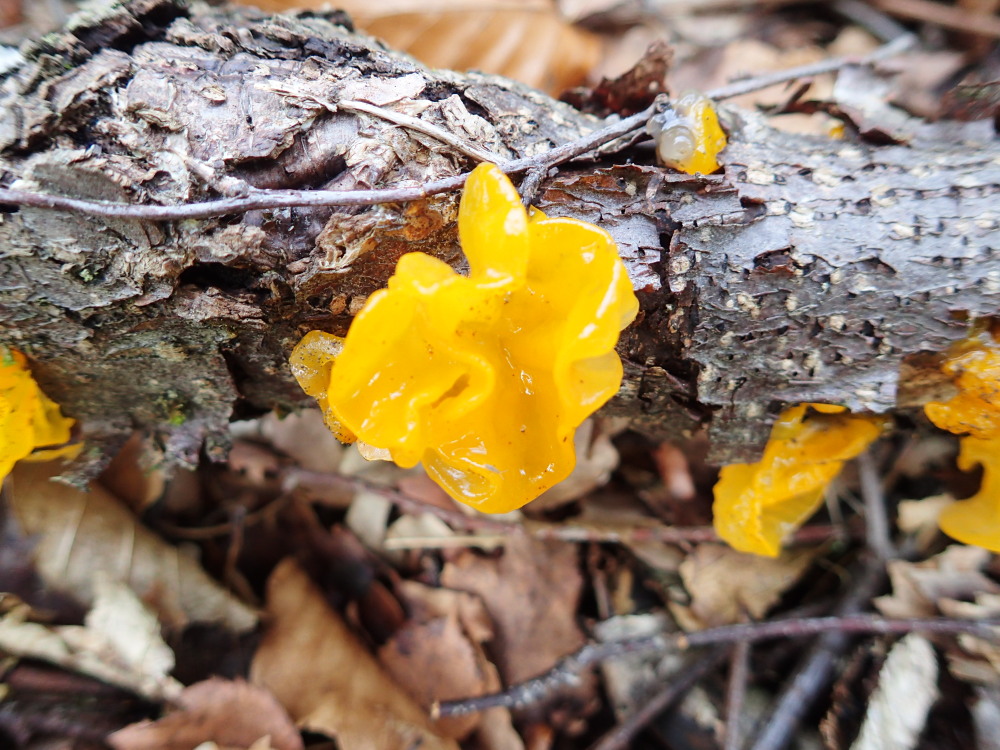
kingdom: Fungi
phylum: Basidiomycota
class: Tremellomycetes
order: Tremellales
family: Tremellaceae
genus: Tremella
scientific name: Tremella mesenterica
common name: gul bævresvamp
